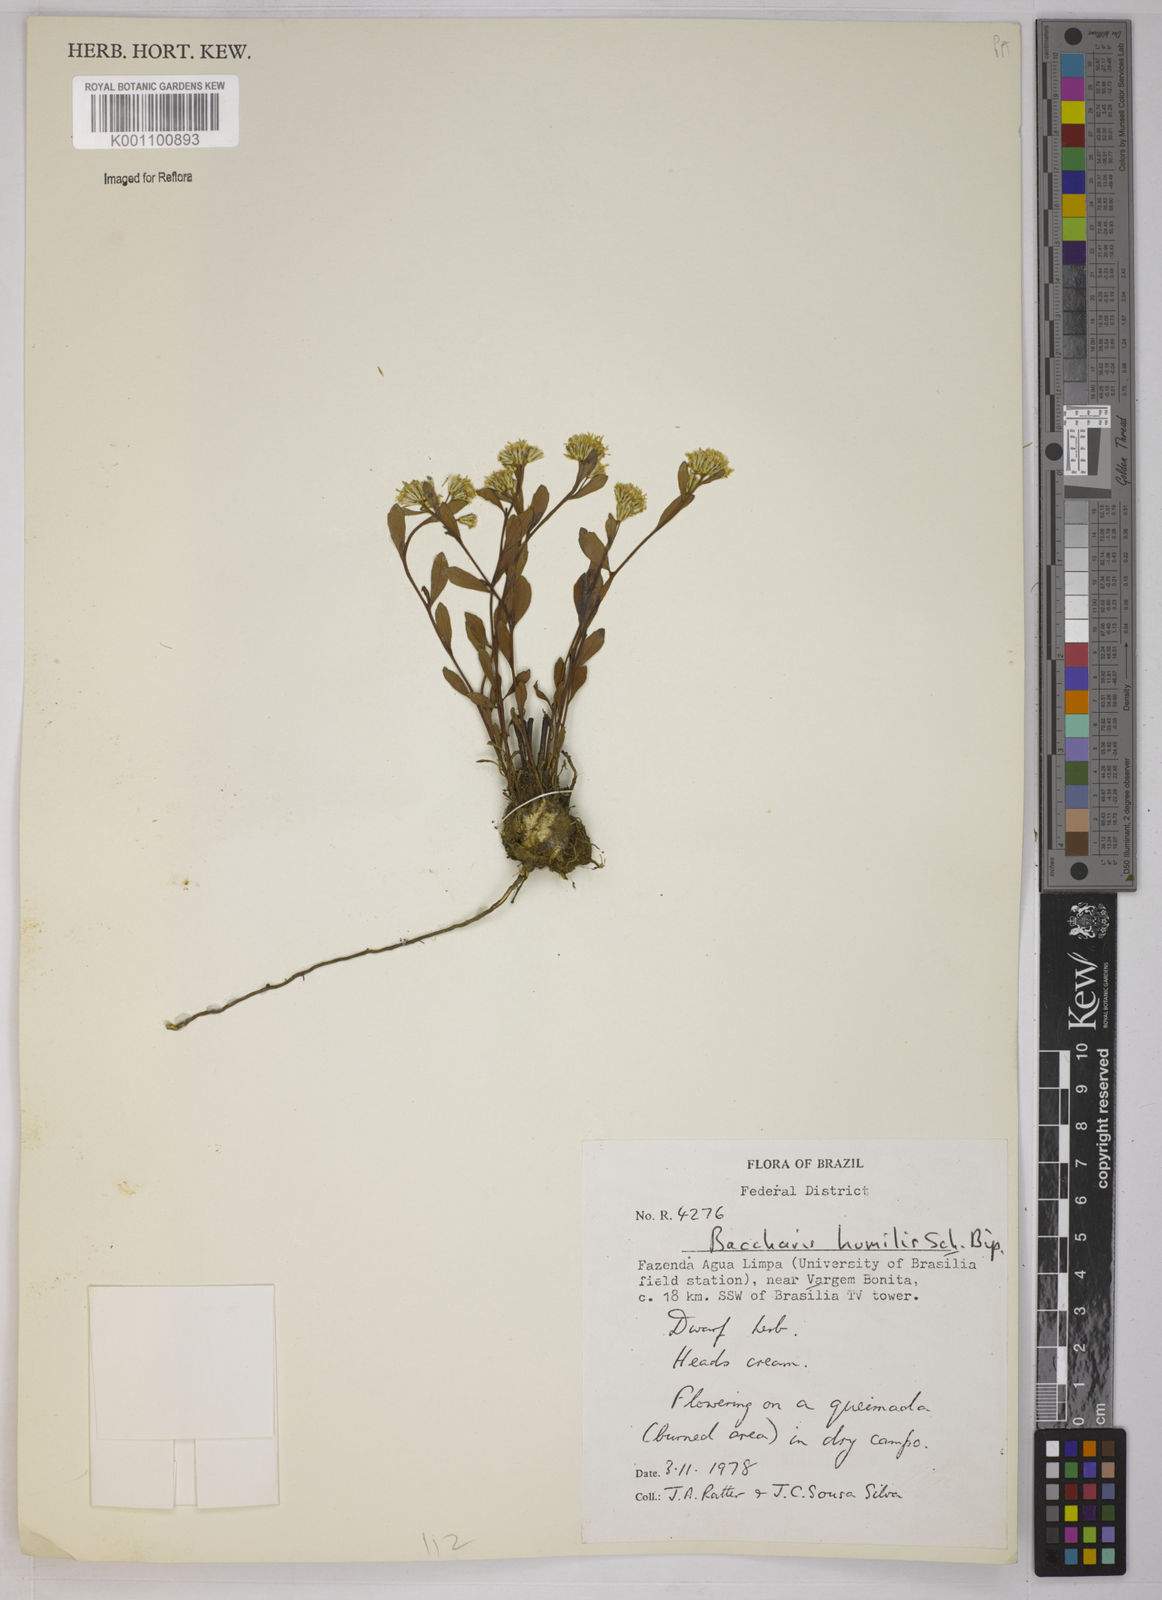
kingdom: Plantae
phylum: Tracheophyta
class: Magnoliopsida
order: Asterales
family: Asteraceae
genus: Baccharis
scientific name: Baccharis humilis
